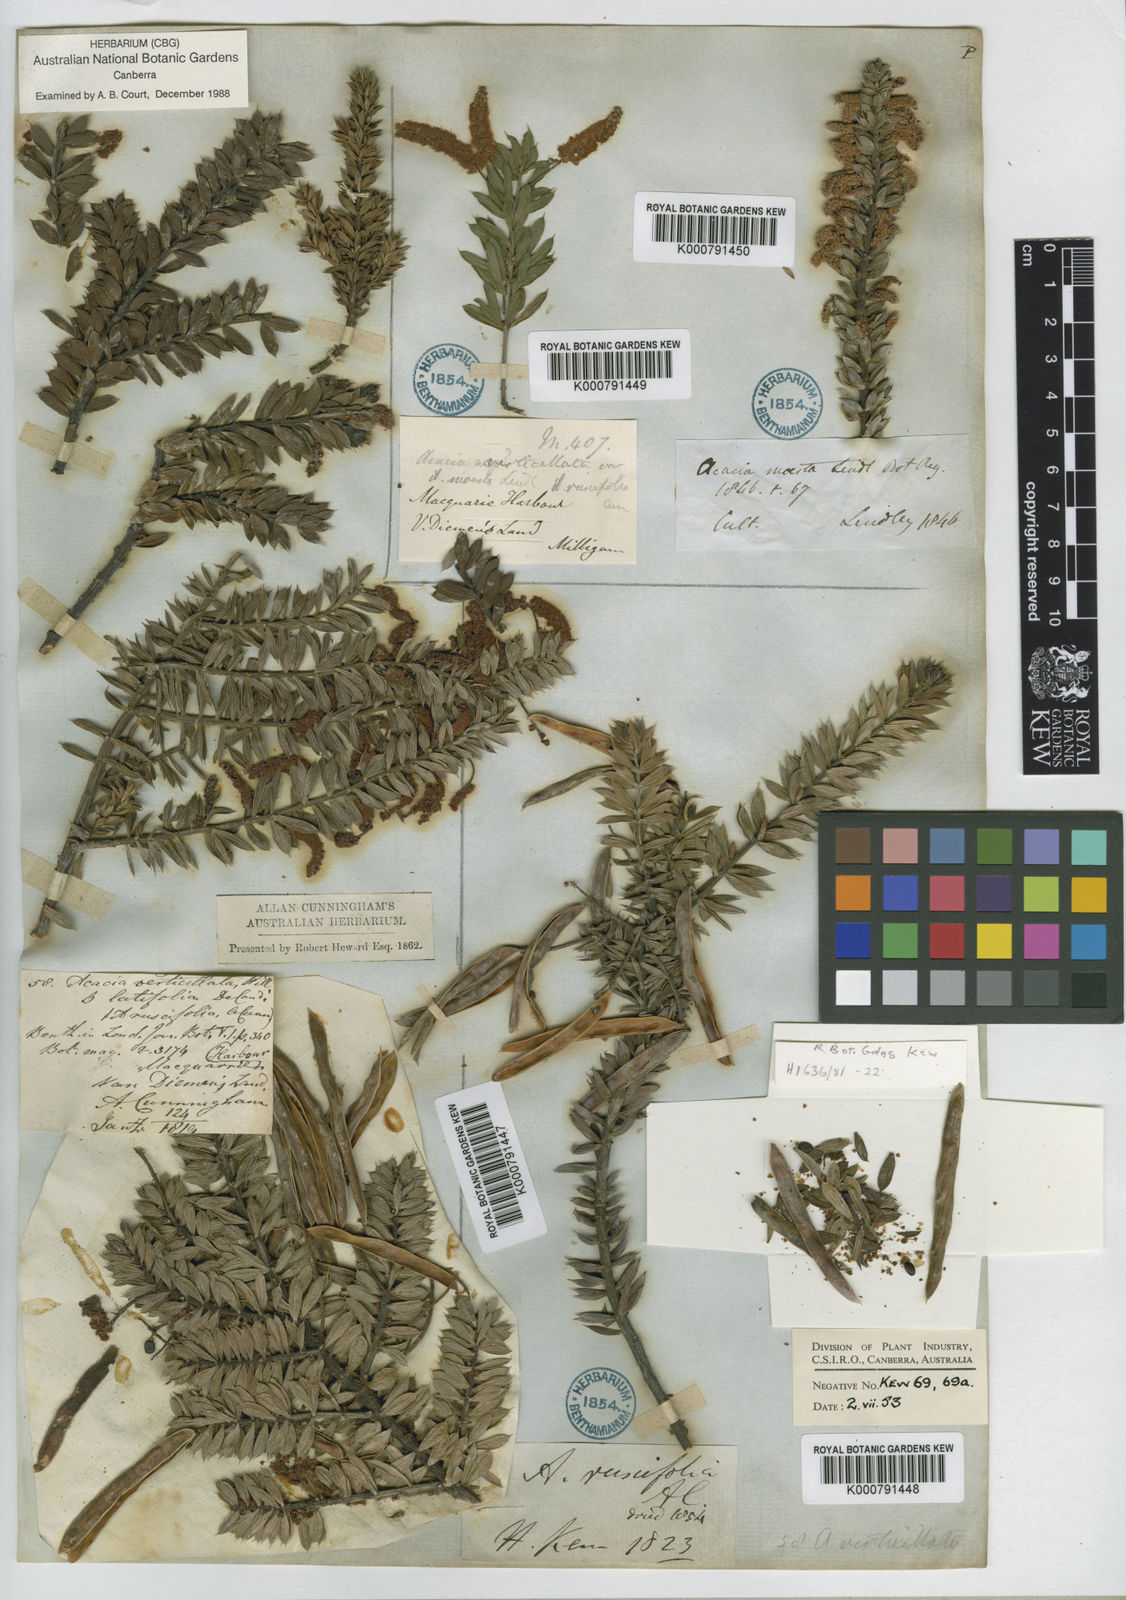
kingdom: Plantae
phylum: Tracheophyta
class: Magnoliopsida
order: Fabales
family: Fabaceae
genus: Acacia
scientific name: Acacia verticillata
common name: Prickly moses
